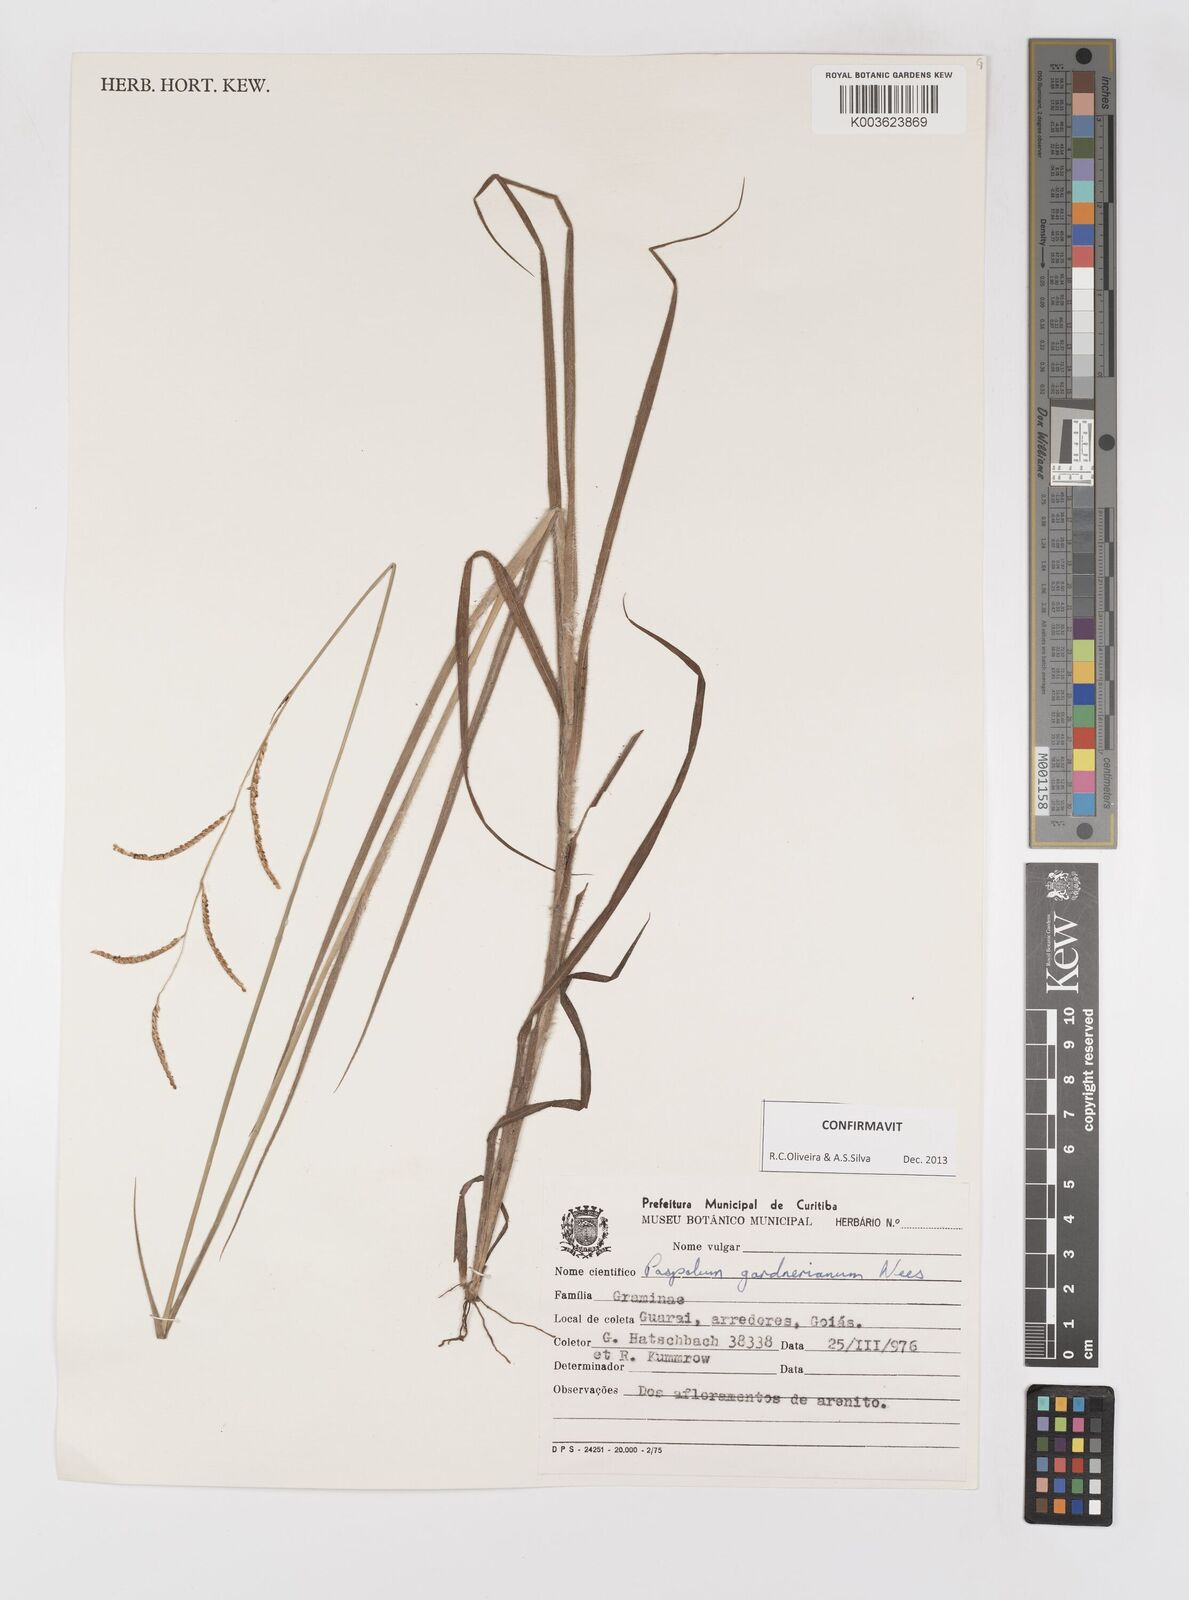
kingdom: Plantae
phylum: Tracheophyta
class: Liliopsida
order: Poales
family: Poaceae
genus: Paspalum
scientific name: Paspalum gardnerianum
